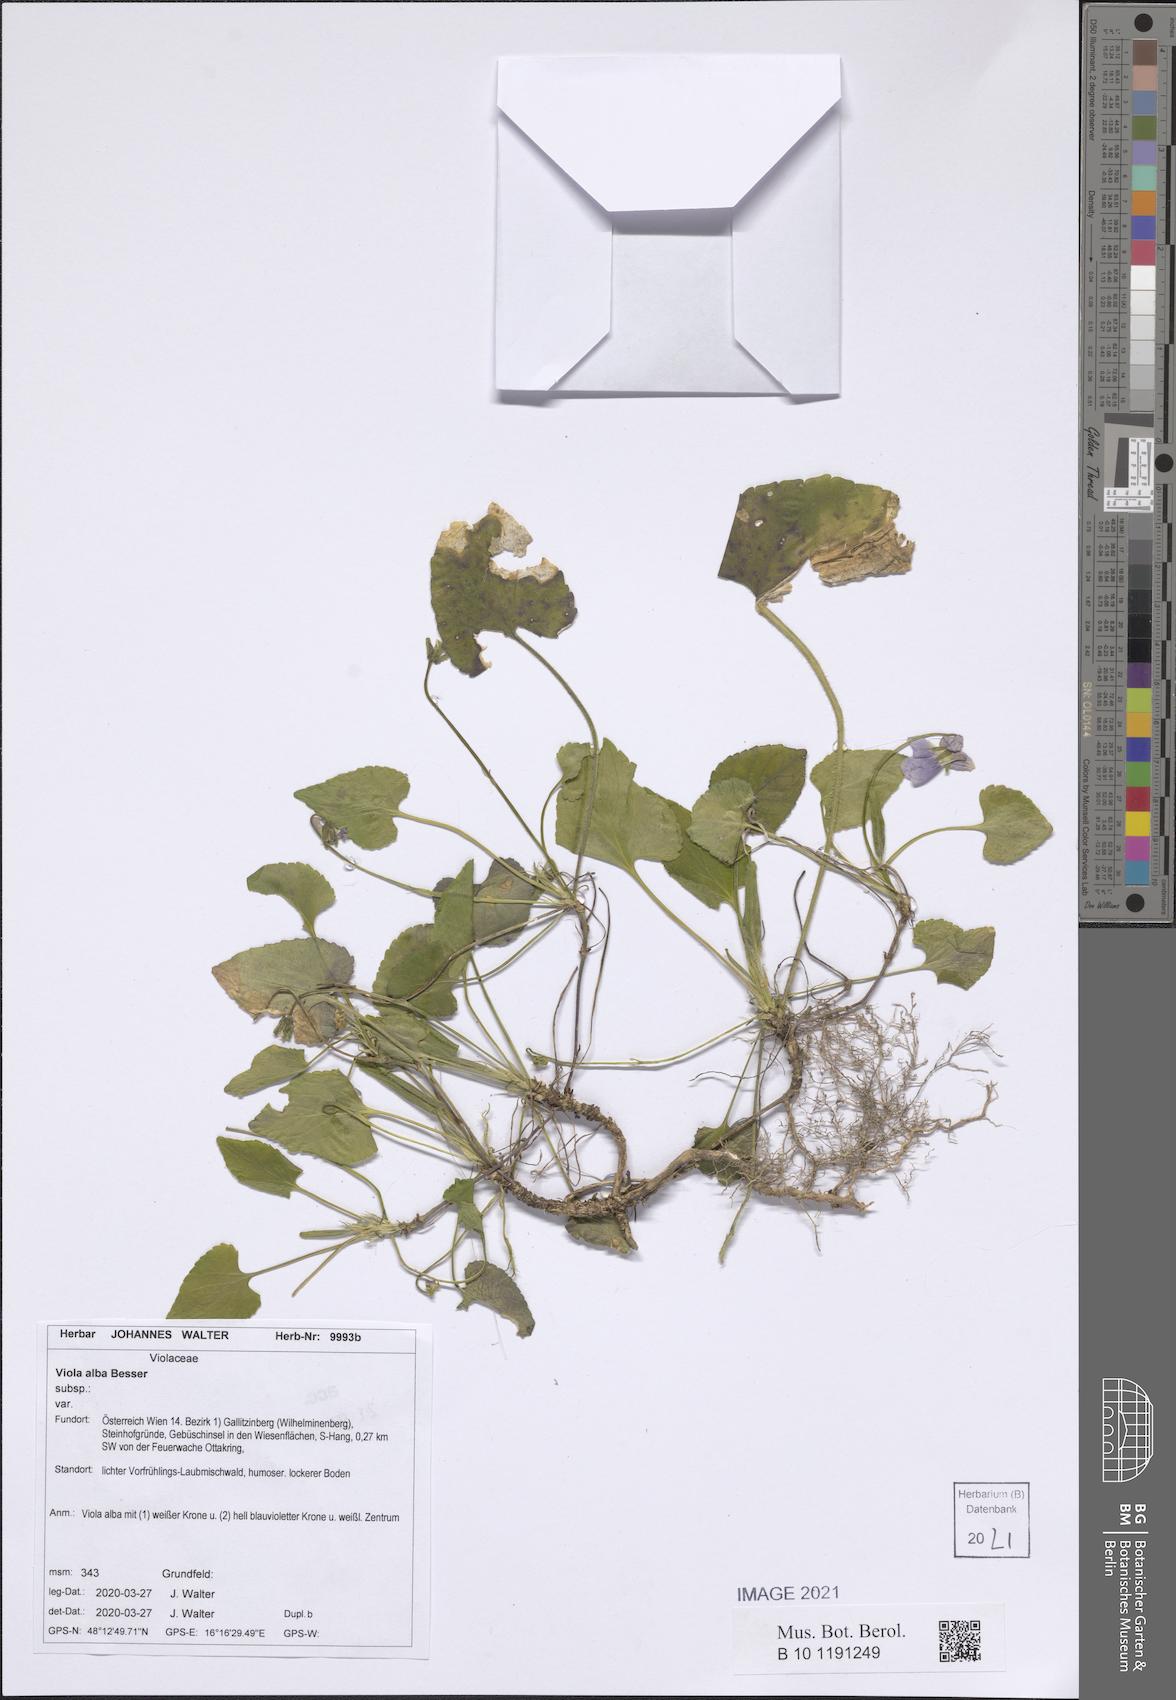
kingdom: Plantae
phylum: Tracheophyta
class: Magnoliopsida
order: Malpighiales
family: Violaceae
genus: Viola
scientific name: Viola alba
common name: White violet
